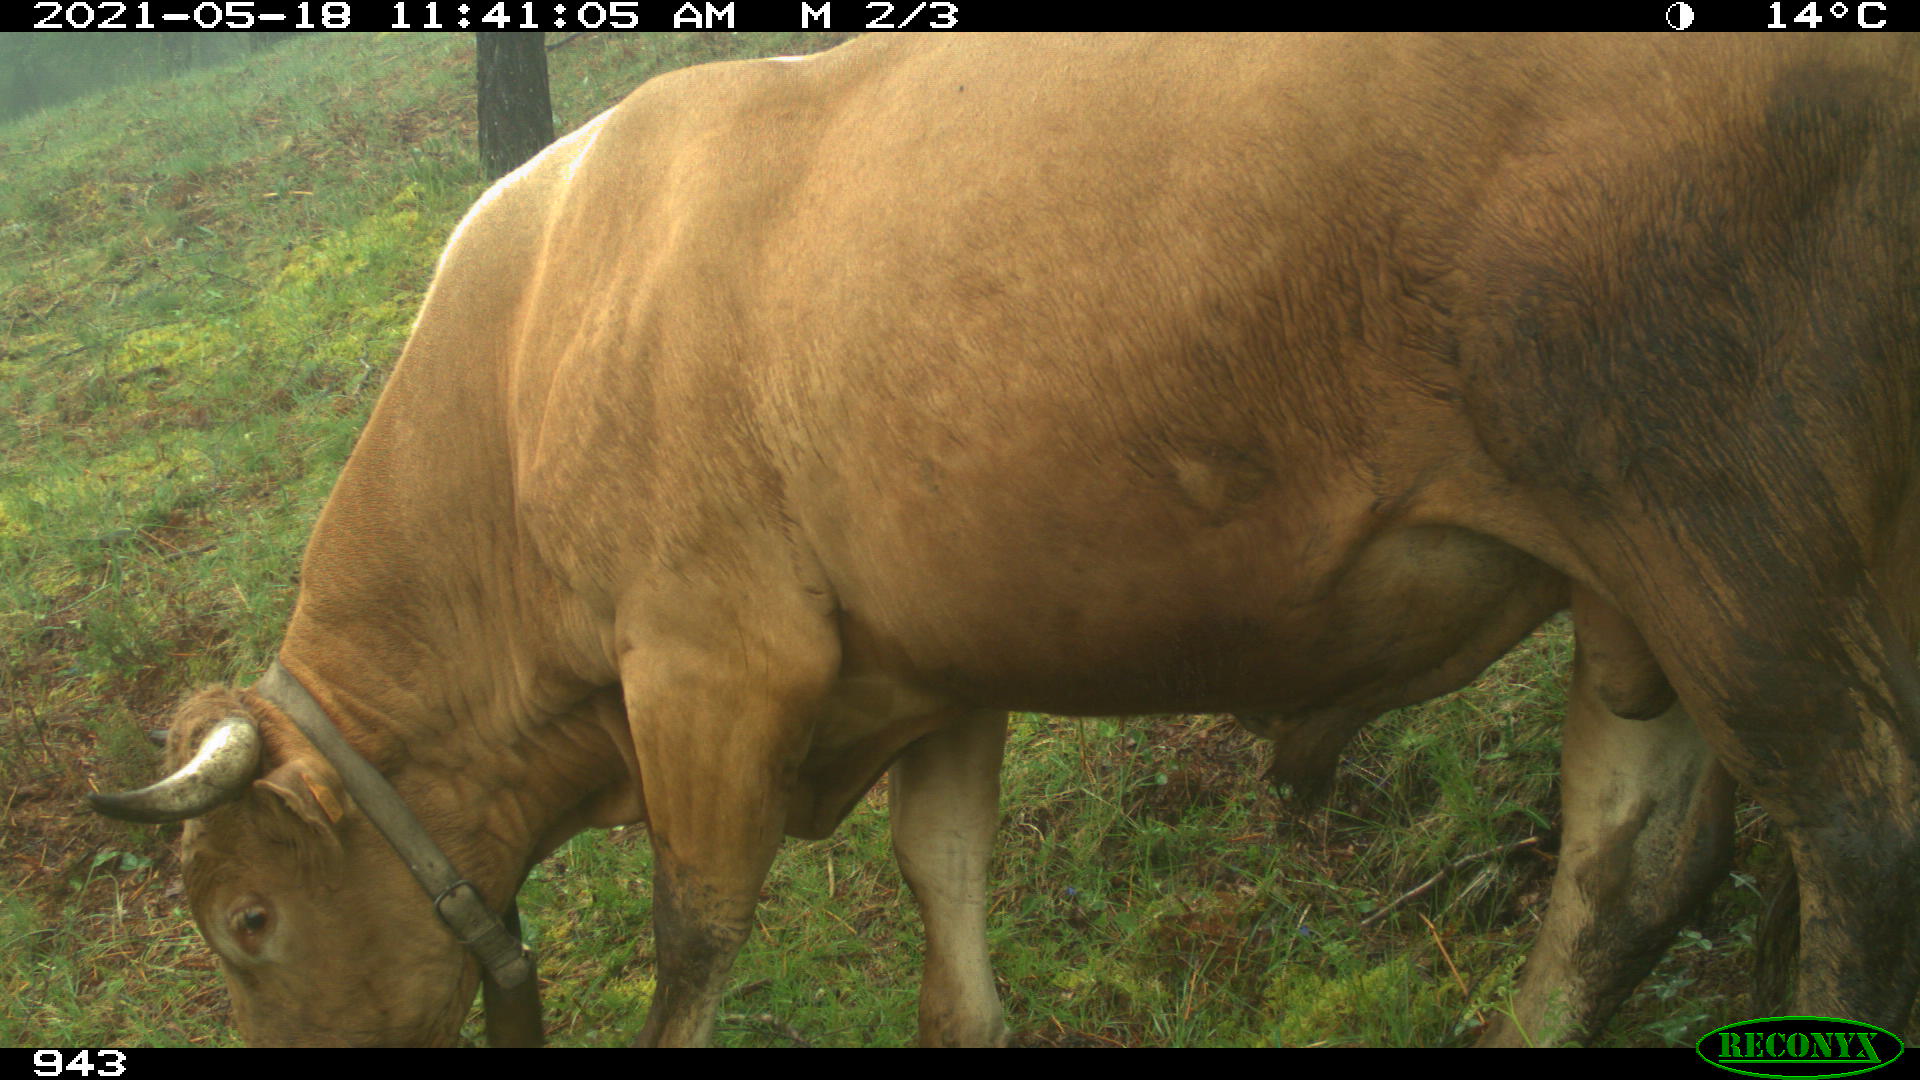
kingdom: Animalia
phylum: Chordata
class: Mammalia
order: Artiodactyla
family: Bovidae
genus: Bos
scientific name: Bos taurus
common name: Domesticated cattle
